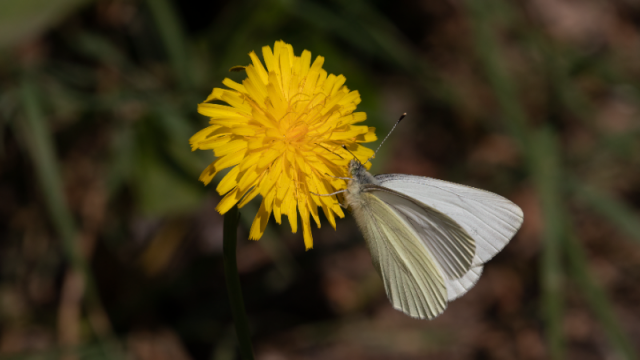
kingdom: Animalia
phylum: Arthropoda
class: Insecta
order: Lepidoptera
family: Pieridae
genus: Pieris
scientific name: Pieris marginalis
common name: Margined White
